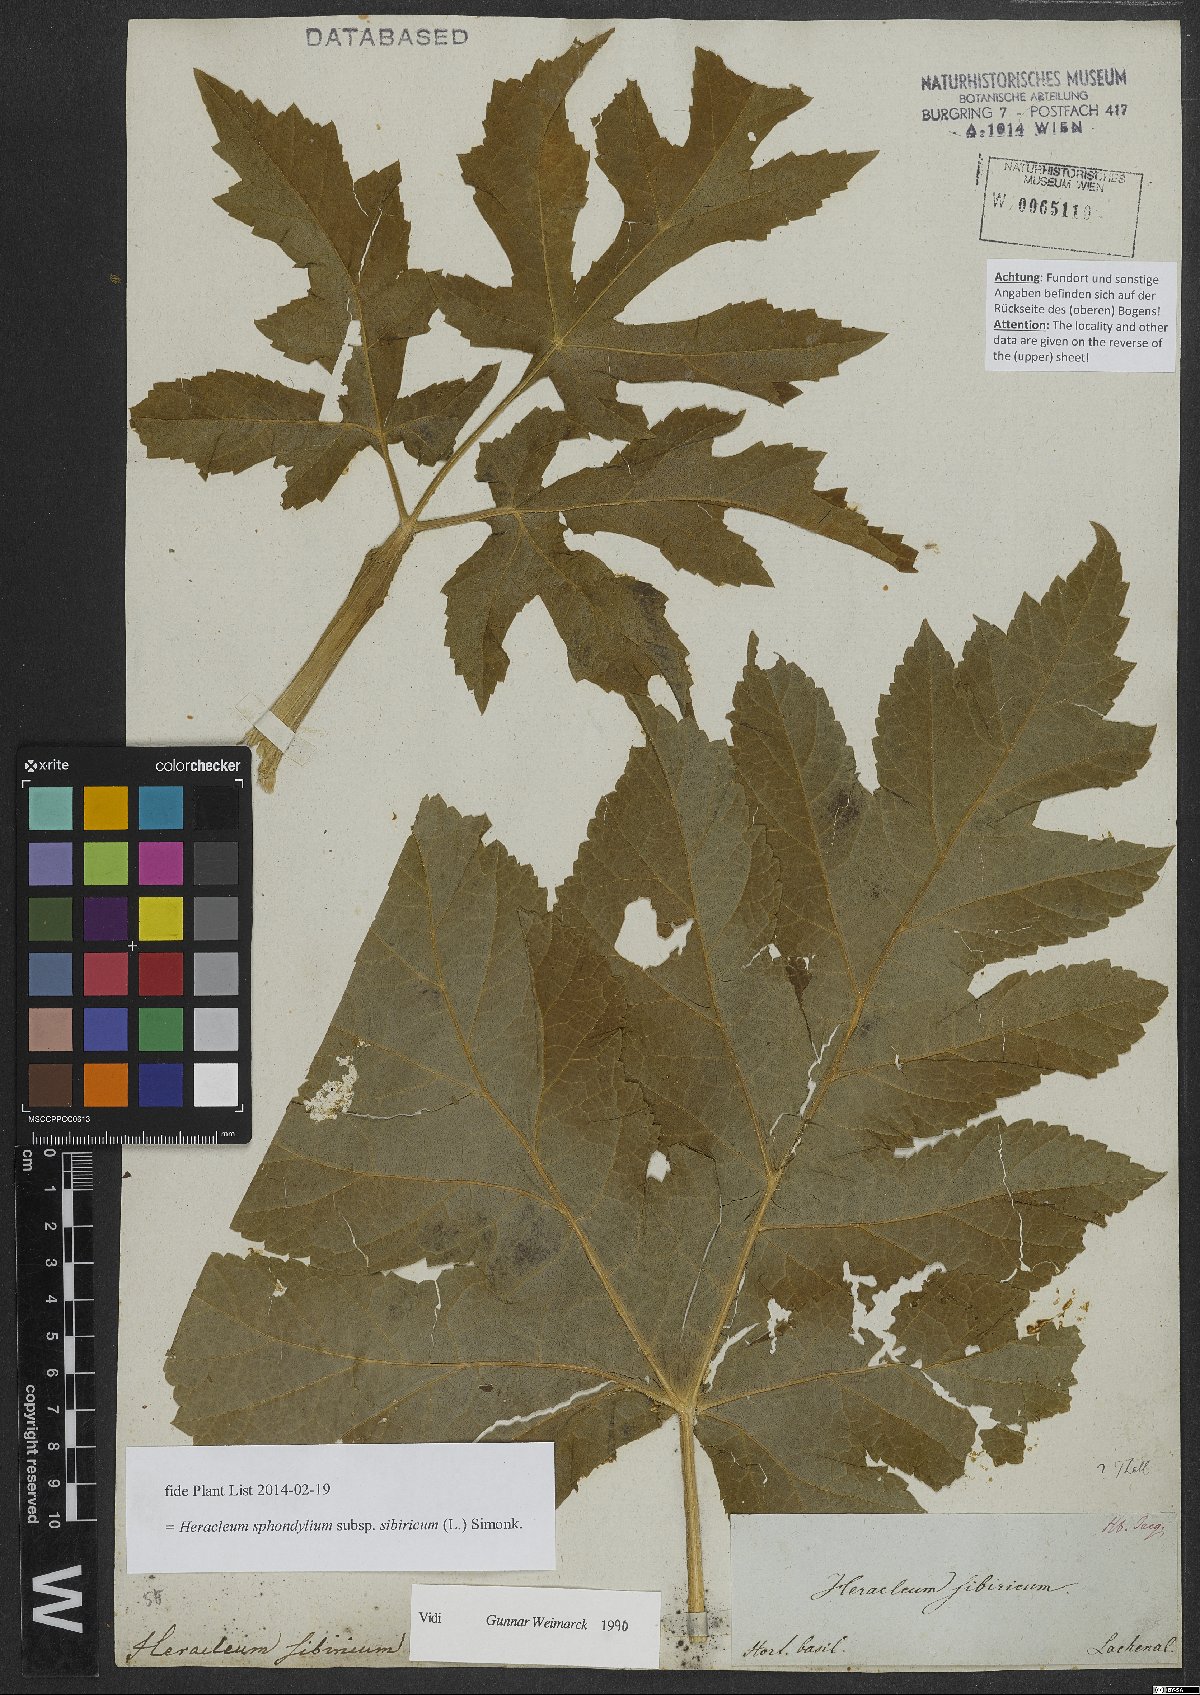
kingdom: Plantae
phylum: Tracheophyta
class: Magnoliopsida
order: Apiales
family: Apiaceae
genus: Heracleum
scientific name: Heracleum sphondylium
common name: Hogweed
